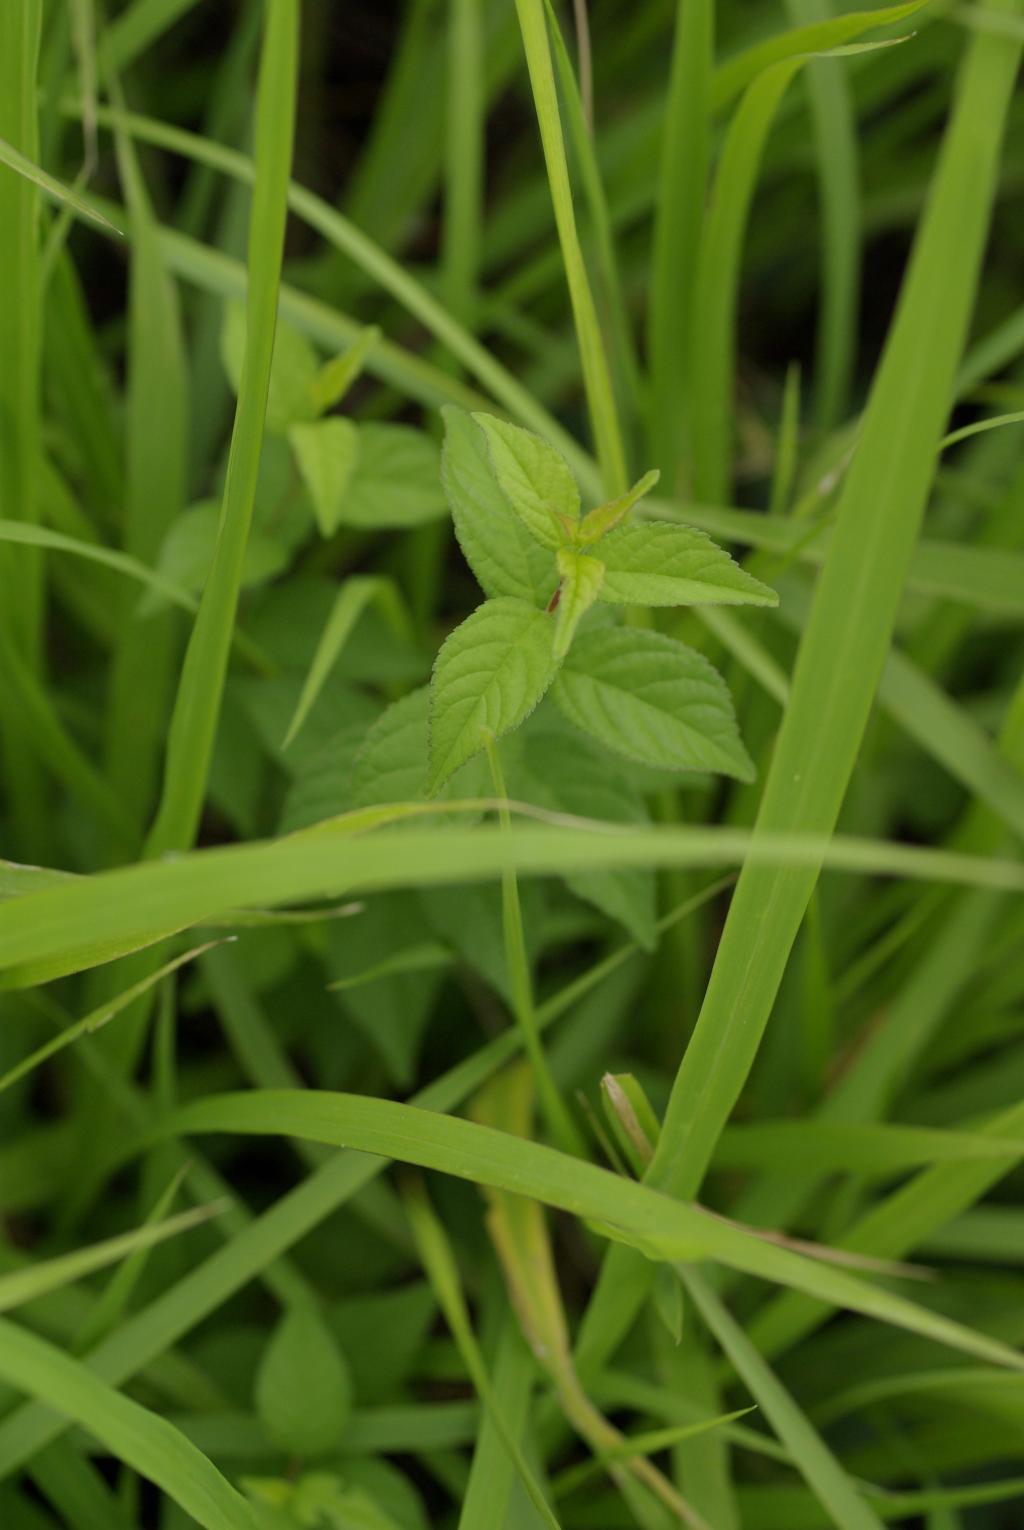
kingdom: Plantae
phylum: Tracheophyta
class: Magnoliopsida
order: Rosales
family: Rosaceae
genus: Prunus
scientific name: Prunus japonica
